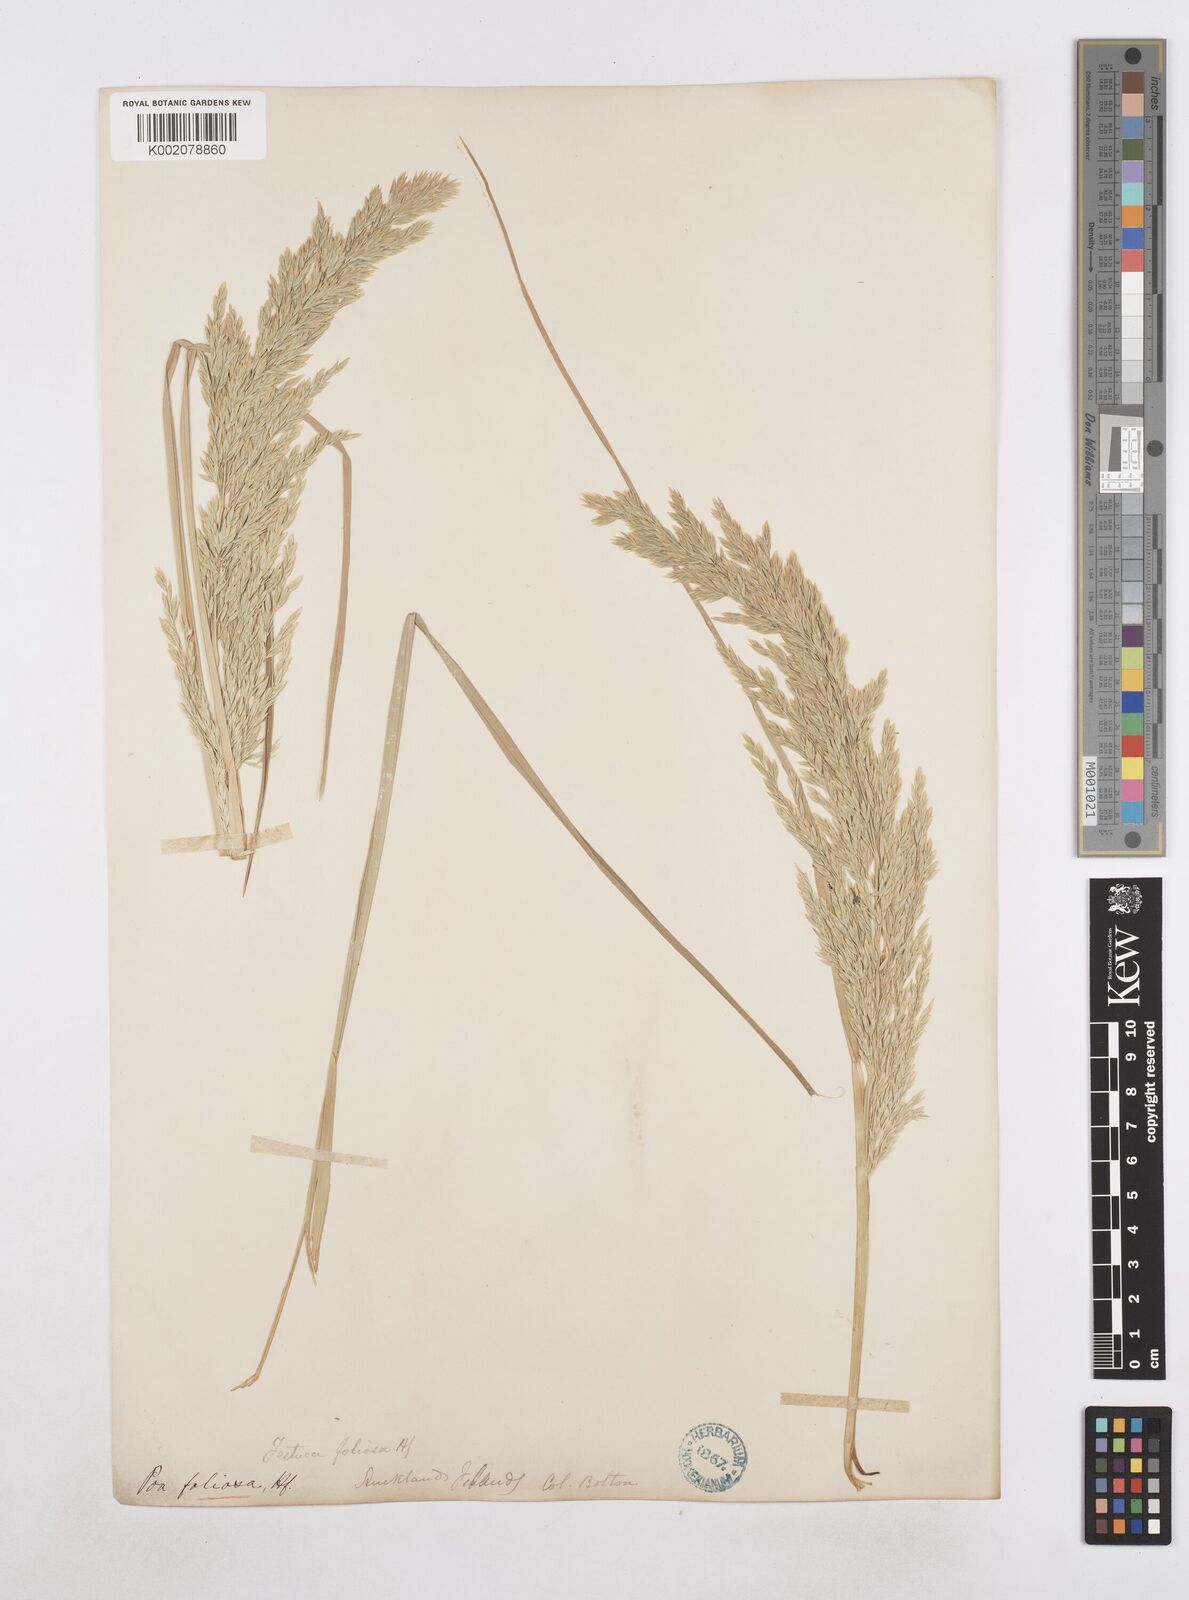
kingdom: Plantae
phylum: Tracheophyta
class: Liliopsida
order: Poales
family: Poaceae
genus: Poa
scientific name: Poa foliosa
